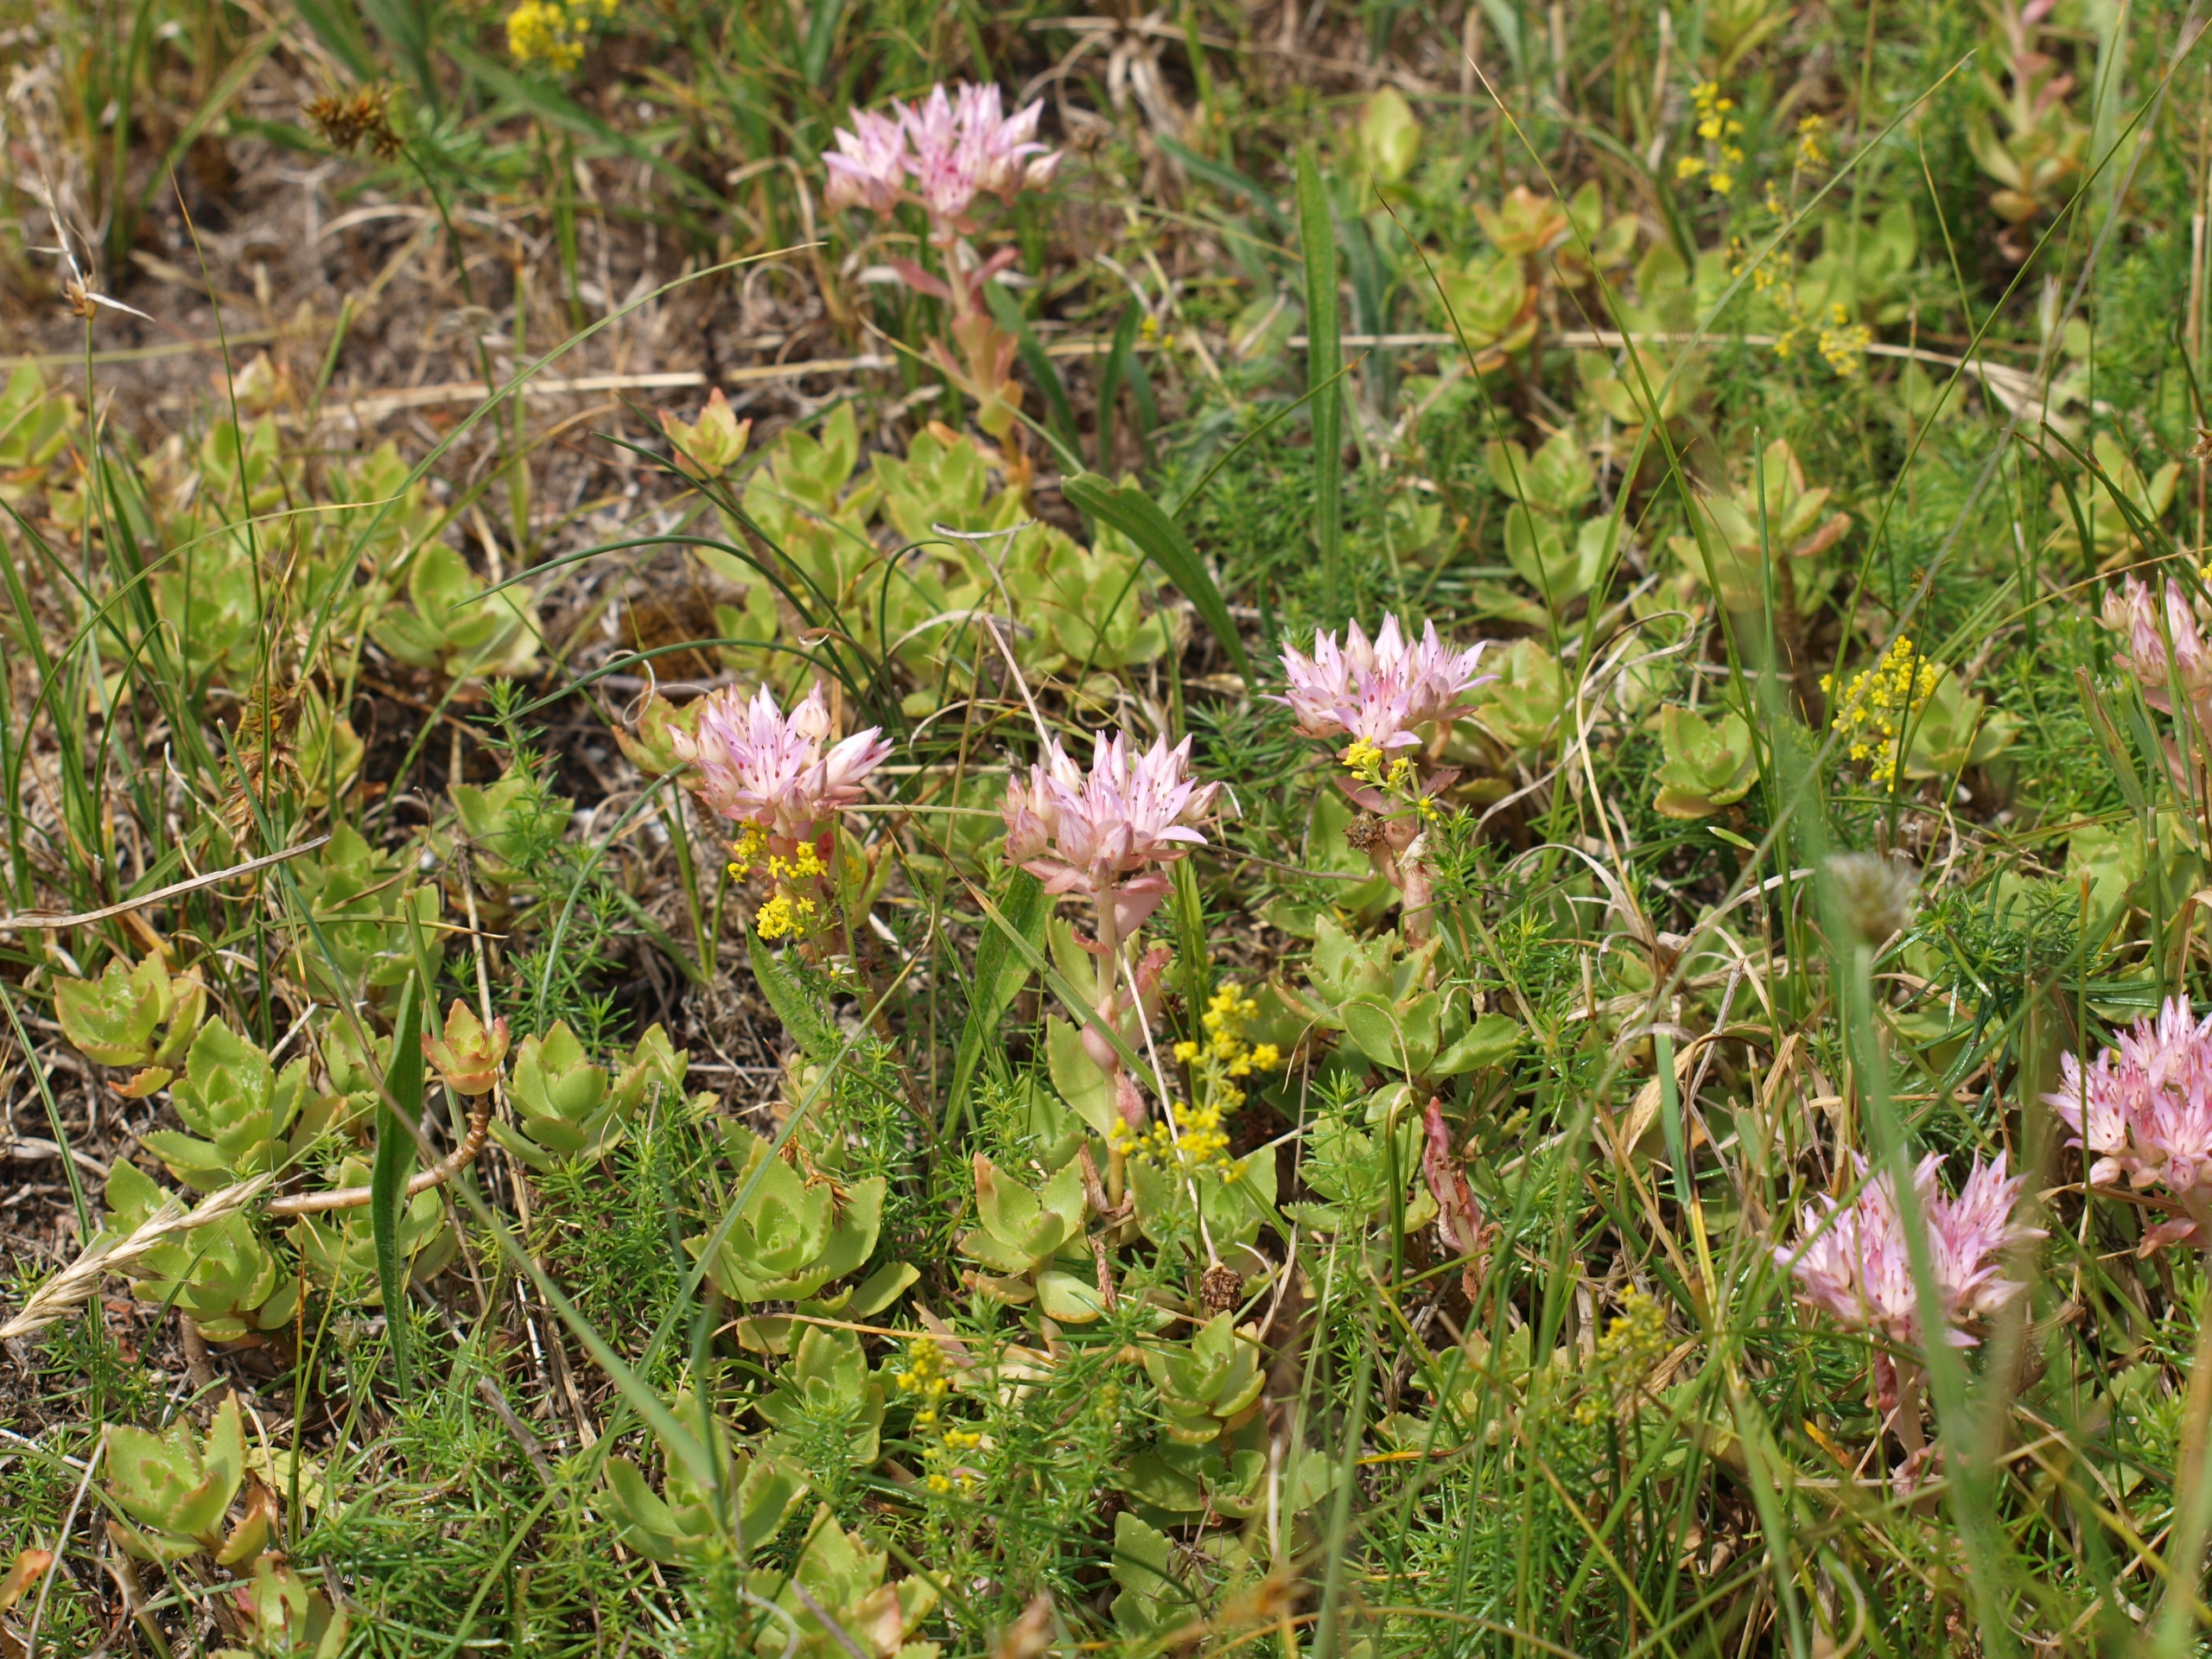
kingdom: Plantae
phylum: Tracheophyta
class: Magnoliopsida
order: Saxifragales
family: Crassulaceae
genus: Phedimus
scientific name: Phedimus spurius
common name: Rød stenurt
